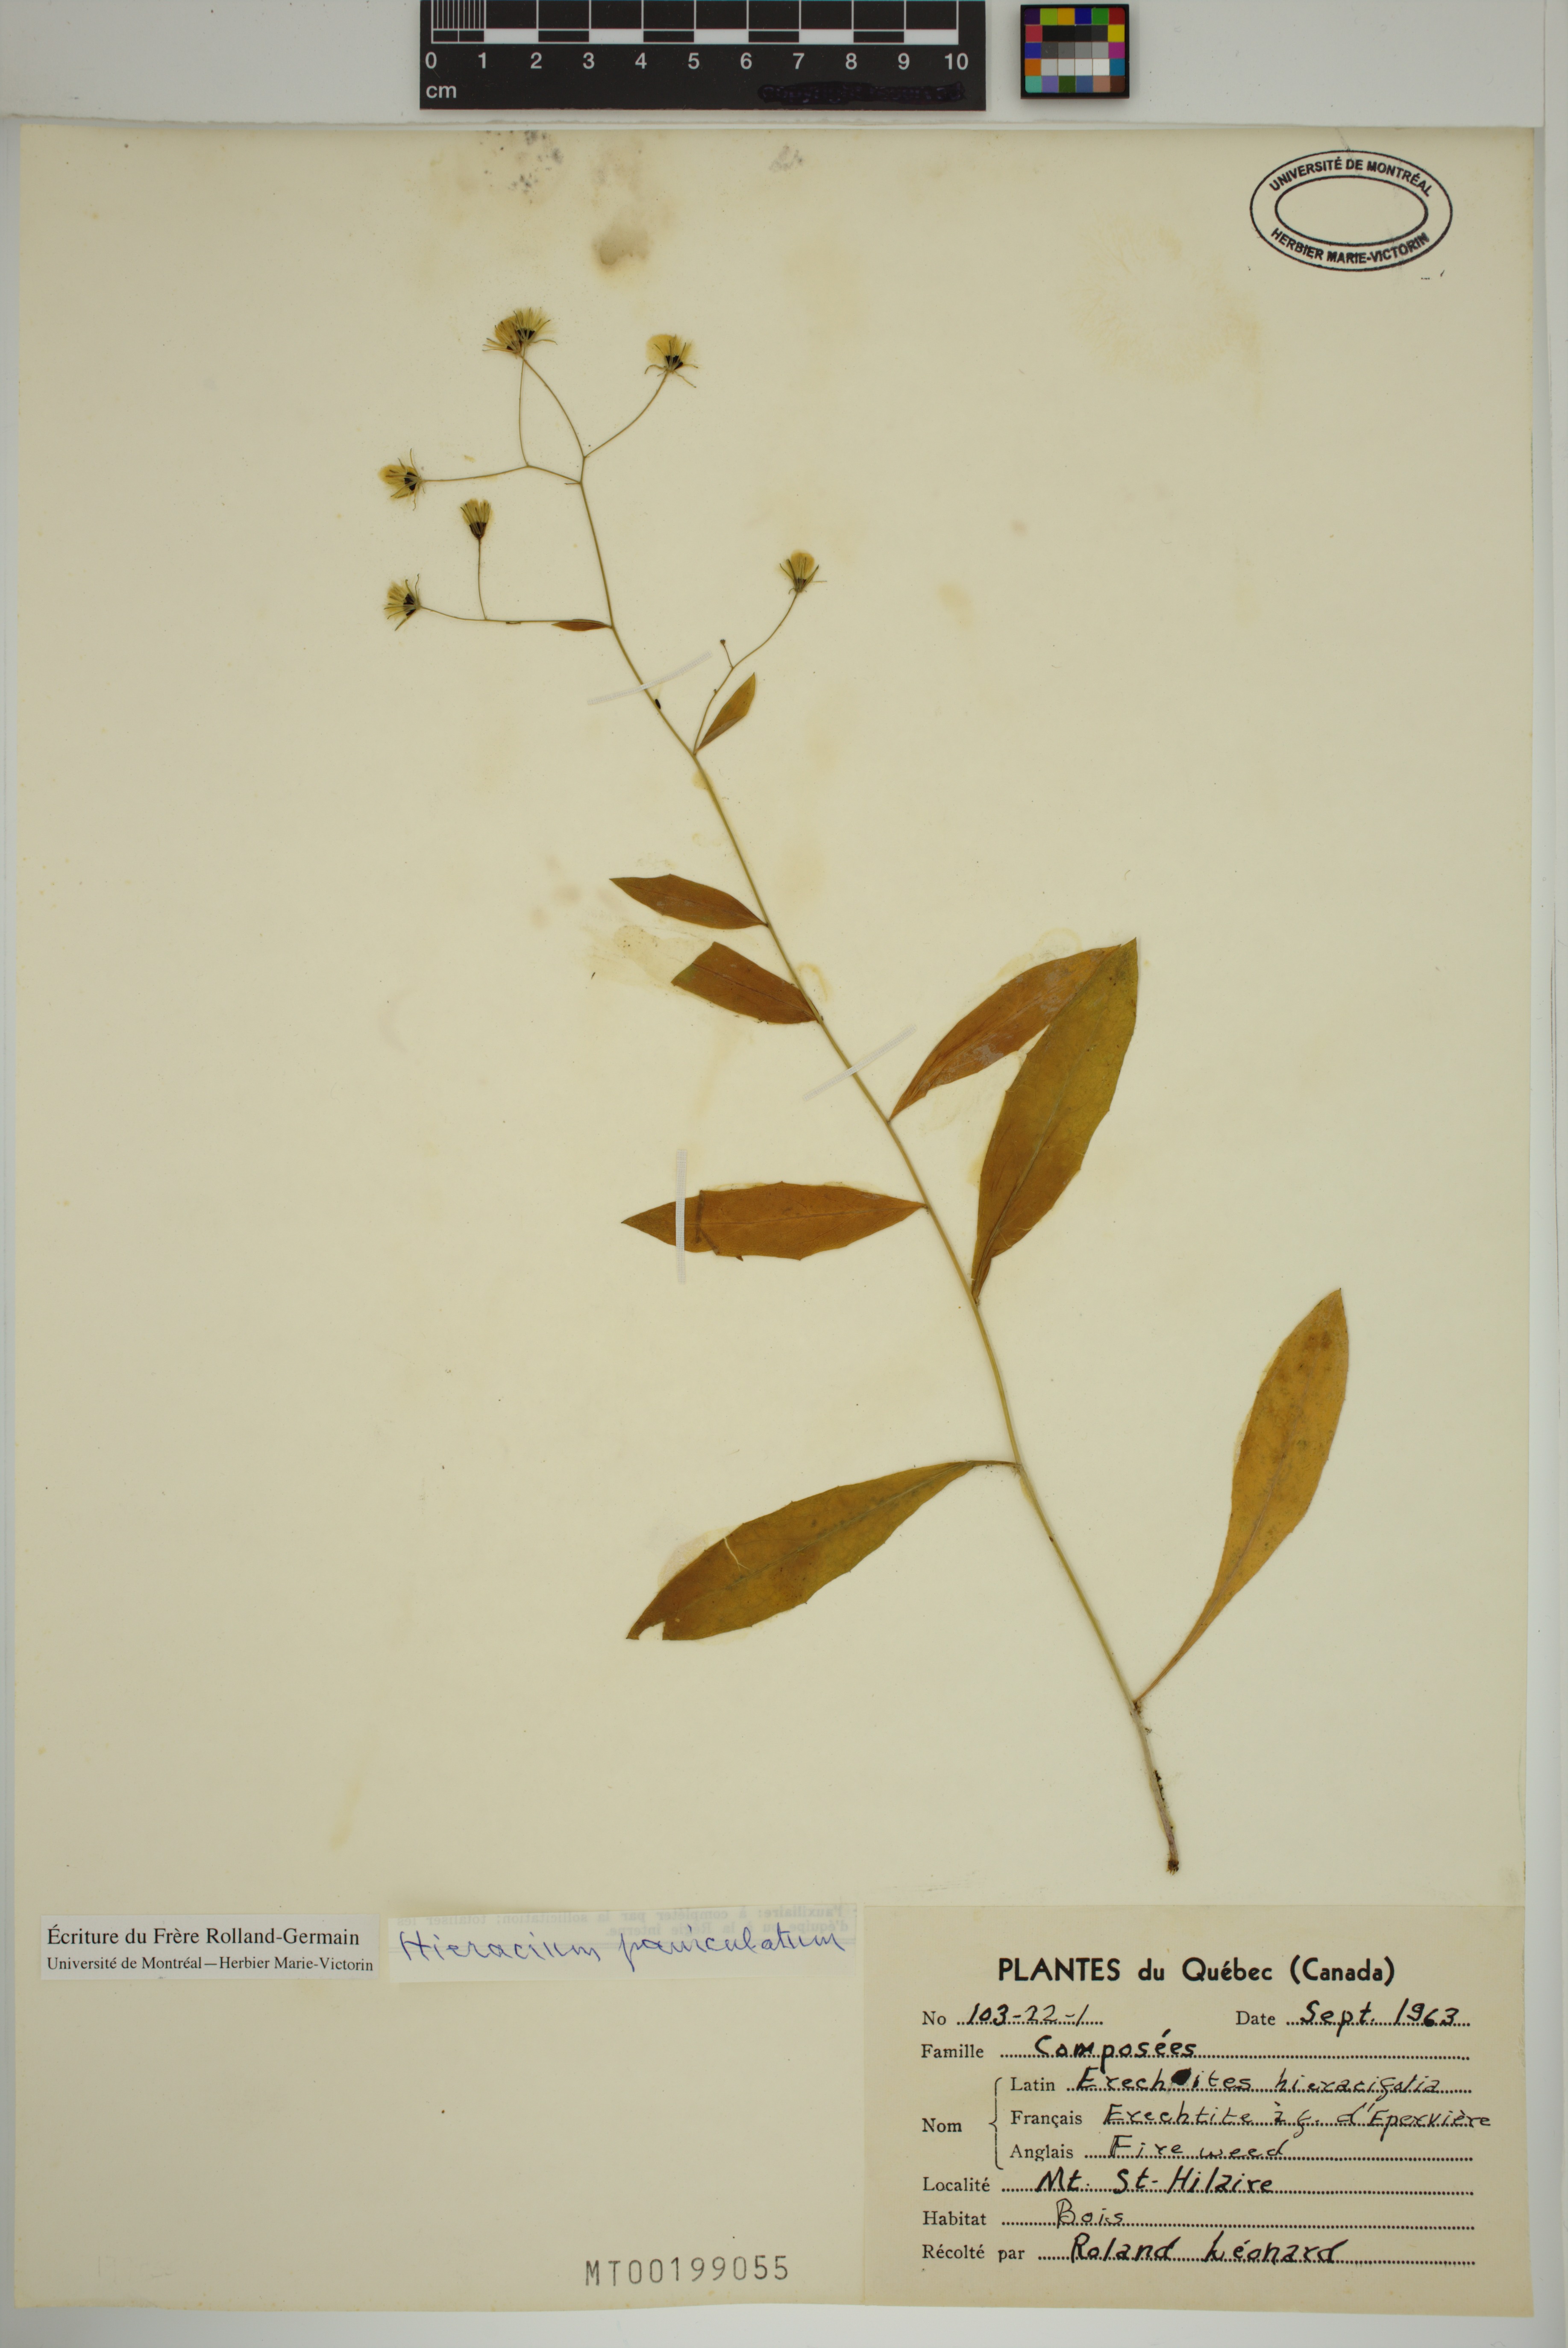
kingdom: Plantae
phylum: Tracheophyta
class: Magnoliopsida
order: Asterales
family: Asteraceae
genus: Hieracium
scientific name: Hieracium paniculatum
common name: Allegheny hawkweed
